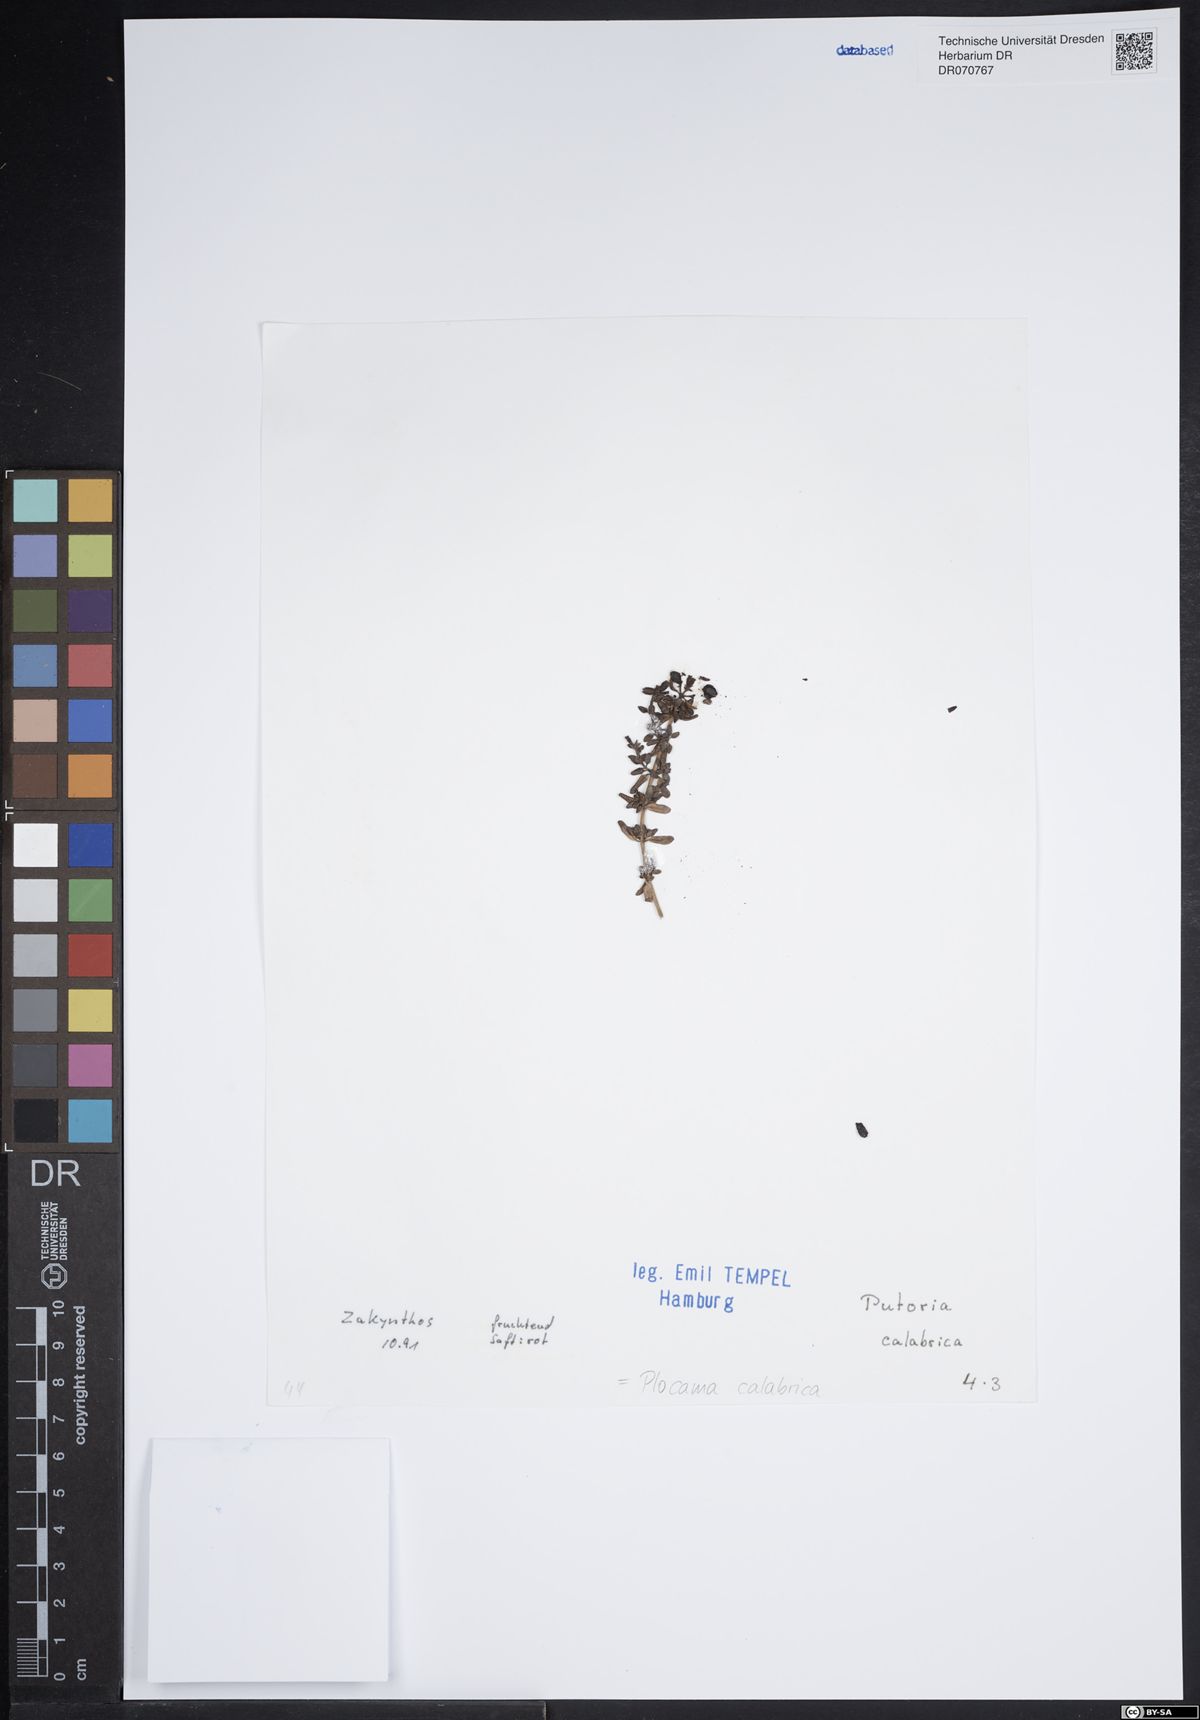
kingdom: Plantae
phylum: Tracheophyta
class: Magnoliopsida
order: Gentianales
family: Rubiaceae
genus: Plocama
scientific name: Plocama calabrica
